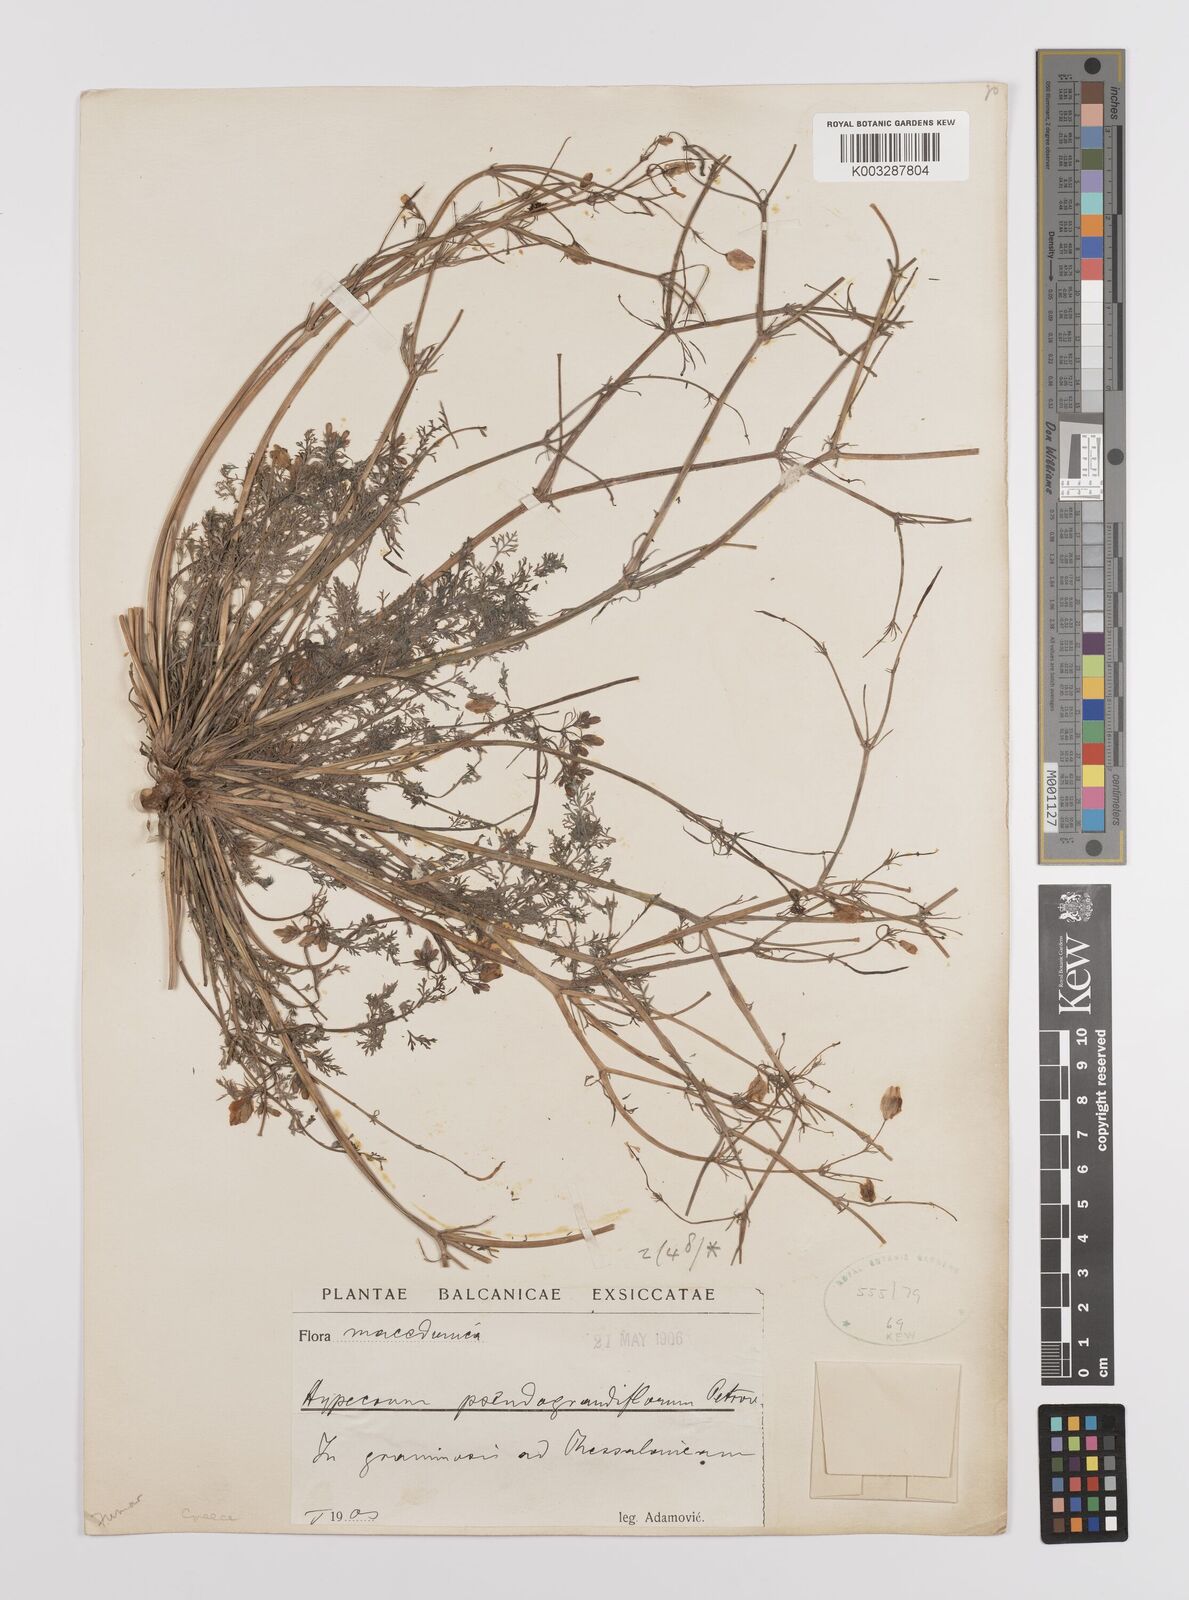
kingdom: Plantae
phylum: Tracheophyta
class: Magnoliopsida
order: Ranunculales
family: Papaveraceae
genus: Hypecoum
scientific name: Hypecoum imberbe
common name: Sicklefruit hypecoum
